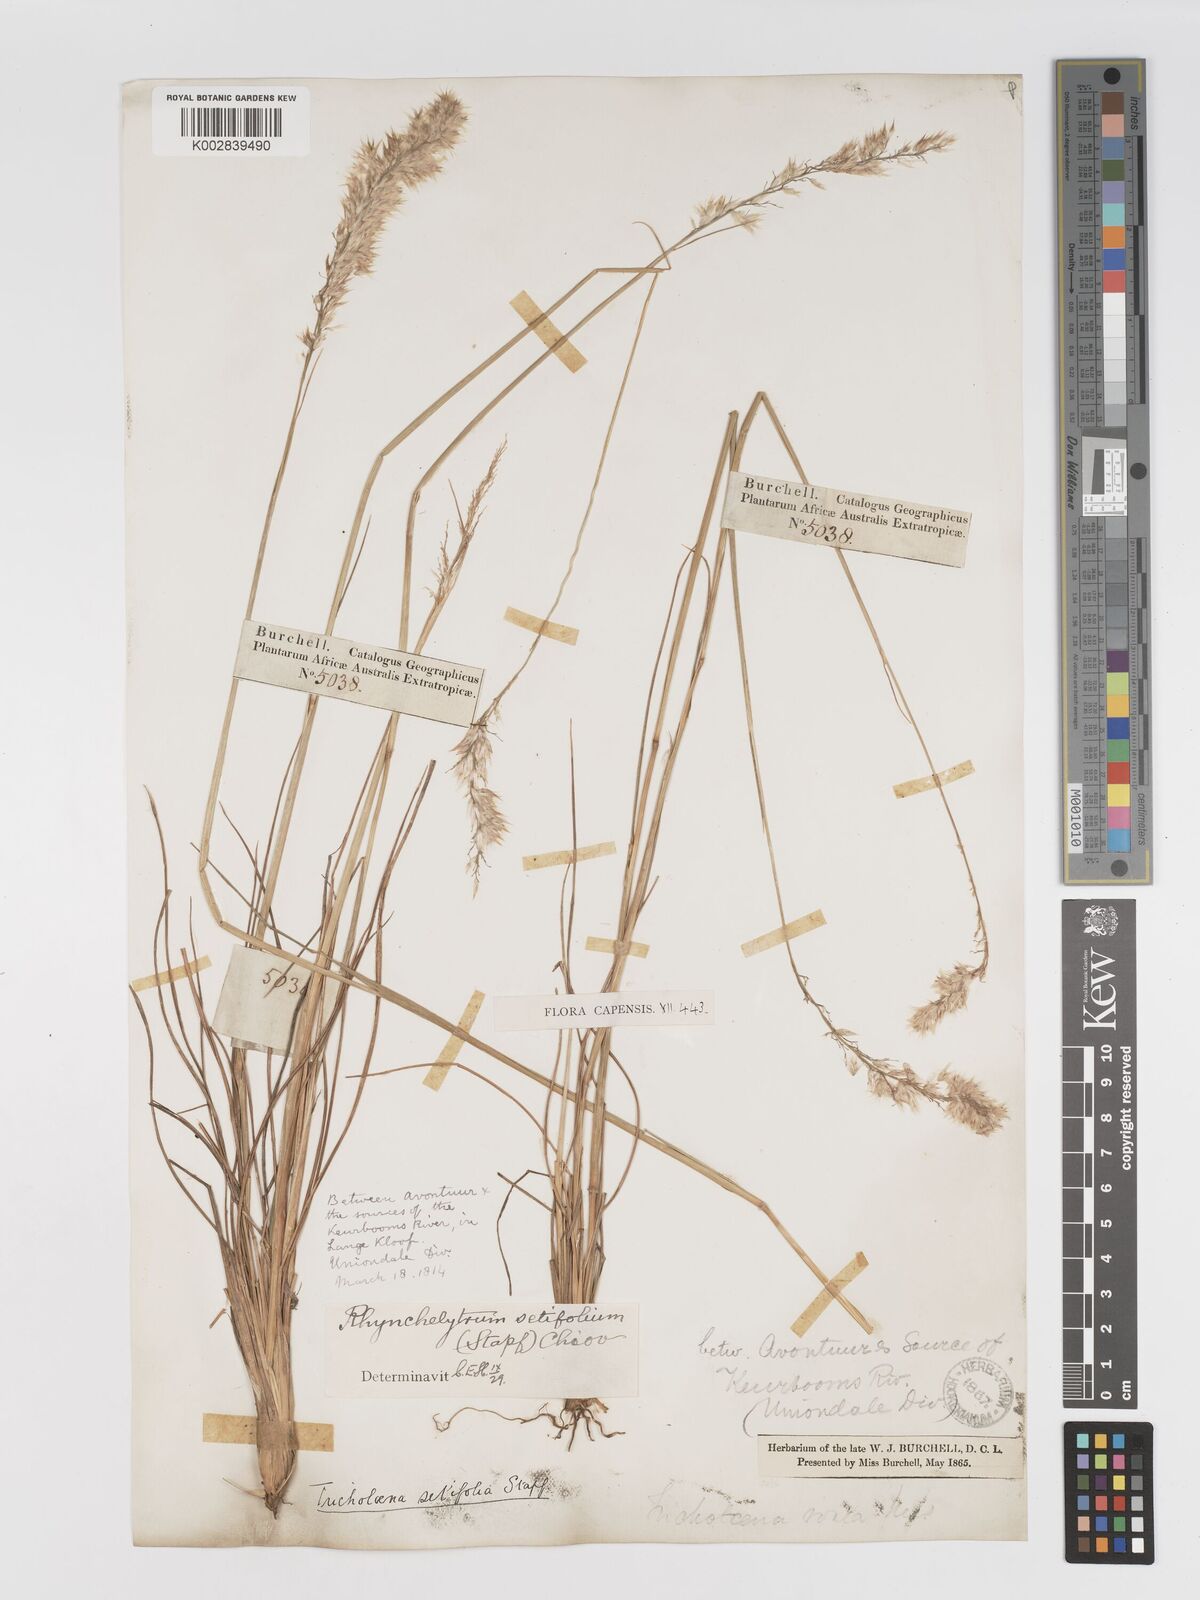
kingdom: Plantae
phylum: Tracheophyta
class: Liliopsida
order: Poales
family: Poaceae
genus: Melinis
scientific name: Melinis nerviglumis
